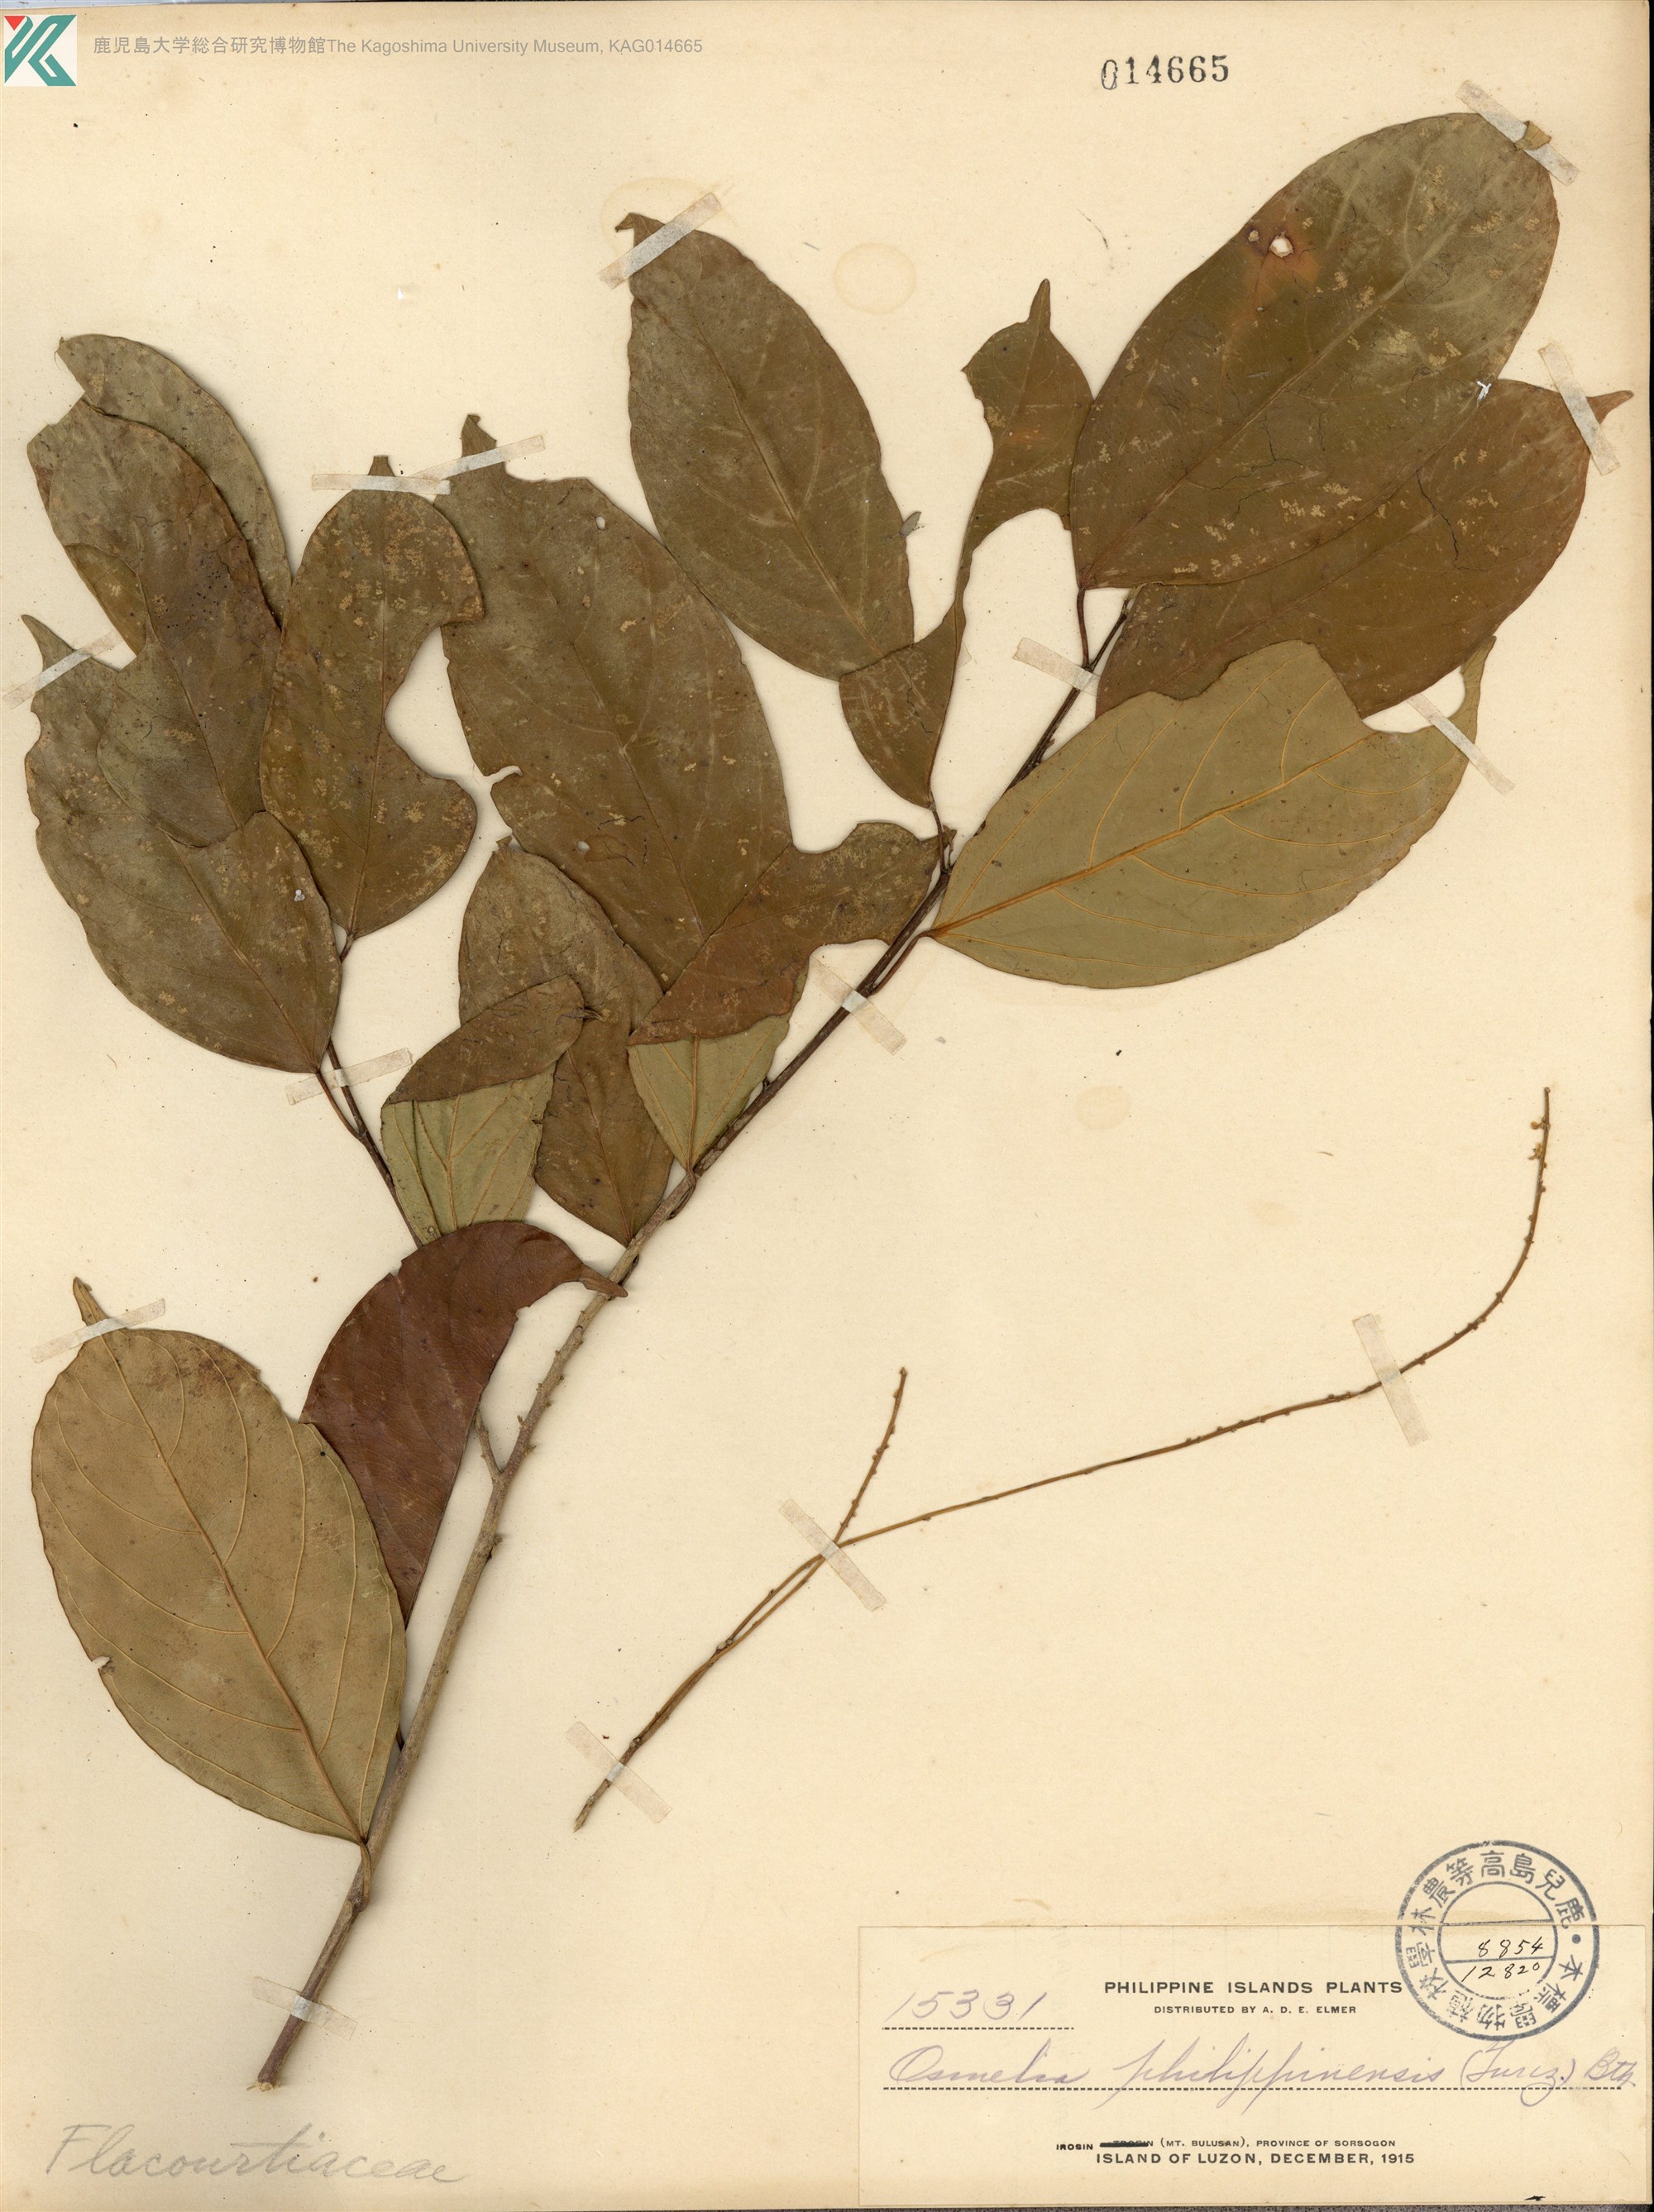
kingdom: Plantae
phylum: Tracheophyta
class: Magnoliopsida
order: Malpighiales
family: Salicaceae
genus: Osmelia
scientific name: Osmelia philippina
